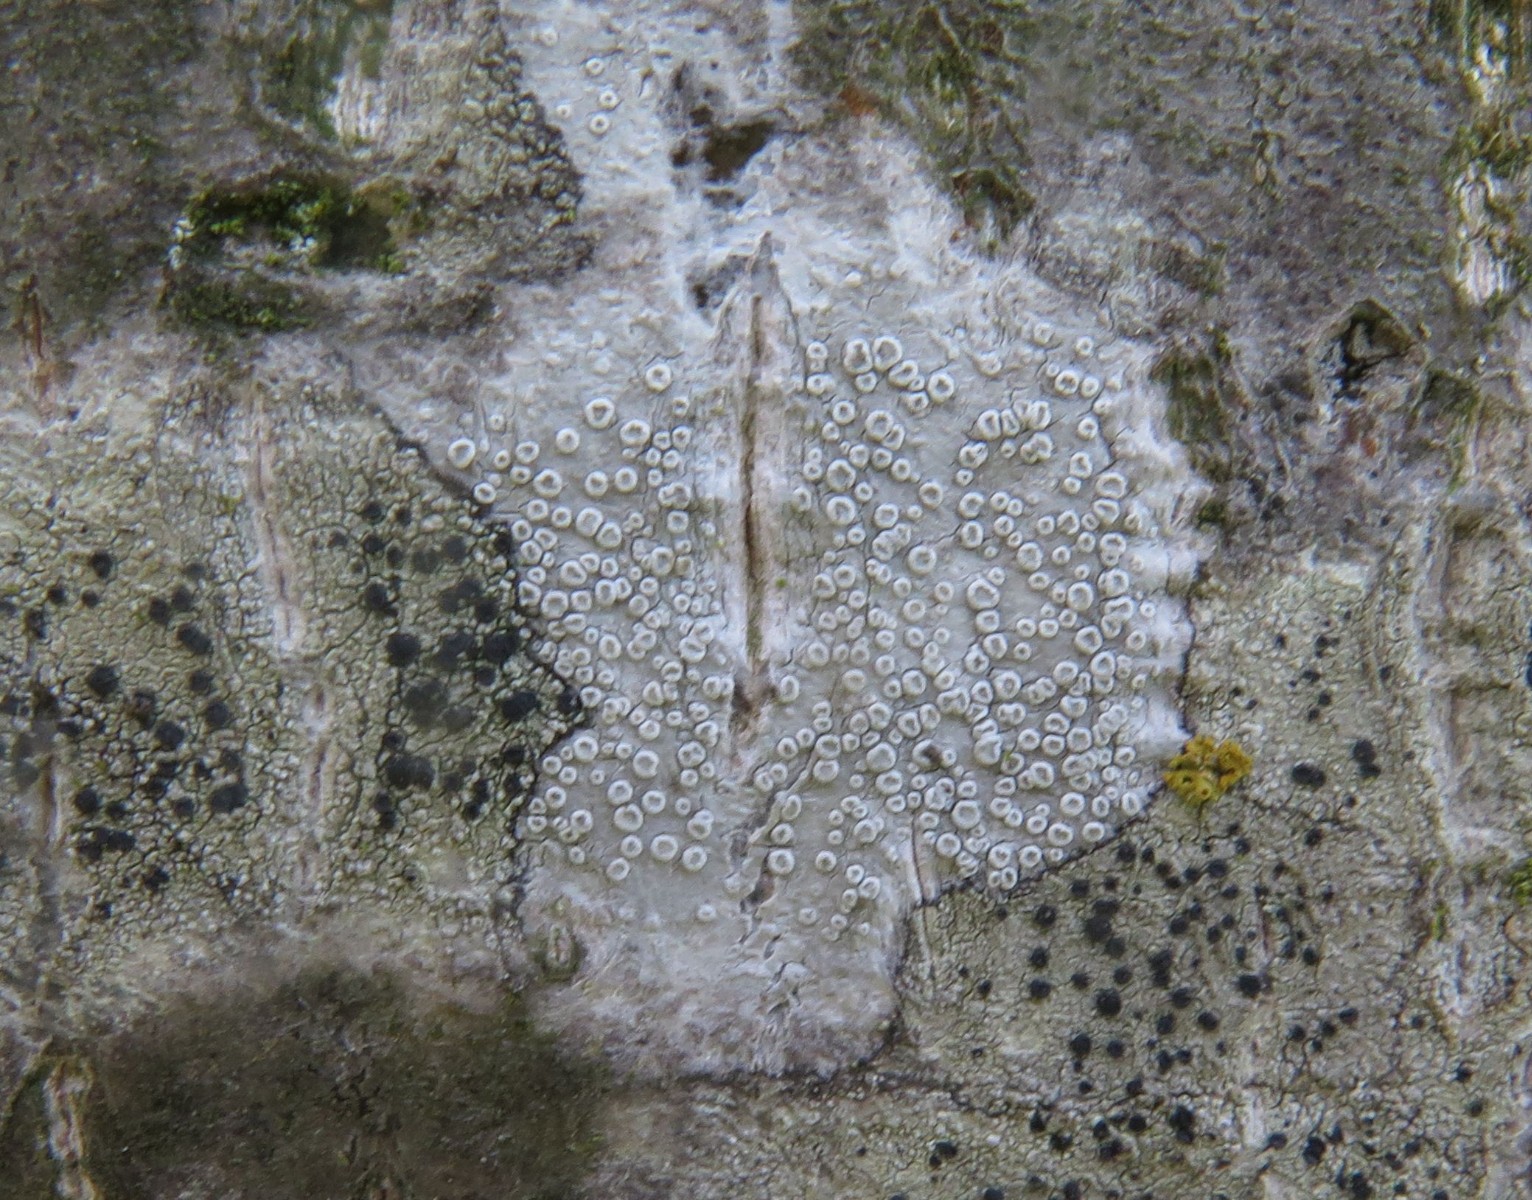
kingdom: Fungi
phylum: Ascomycota
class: Lecanoromycetes
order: Lecanorales
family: Lecanoraceae
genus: Glaucomaria
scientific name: Glaucomaria carpinea
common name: hviddugget kantskivelav
